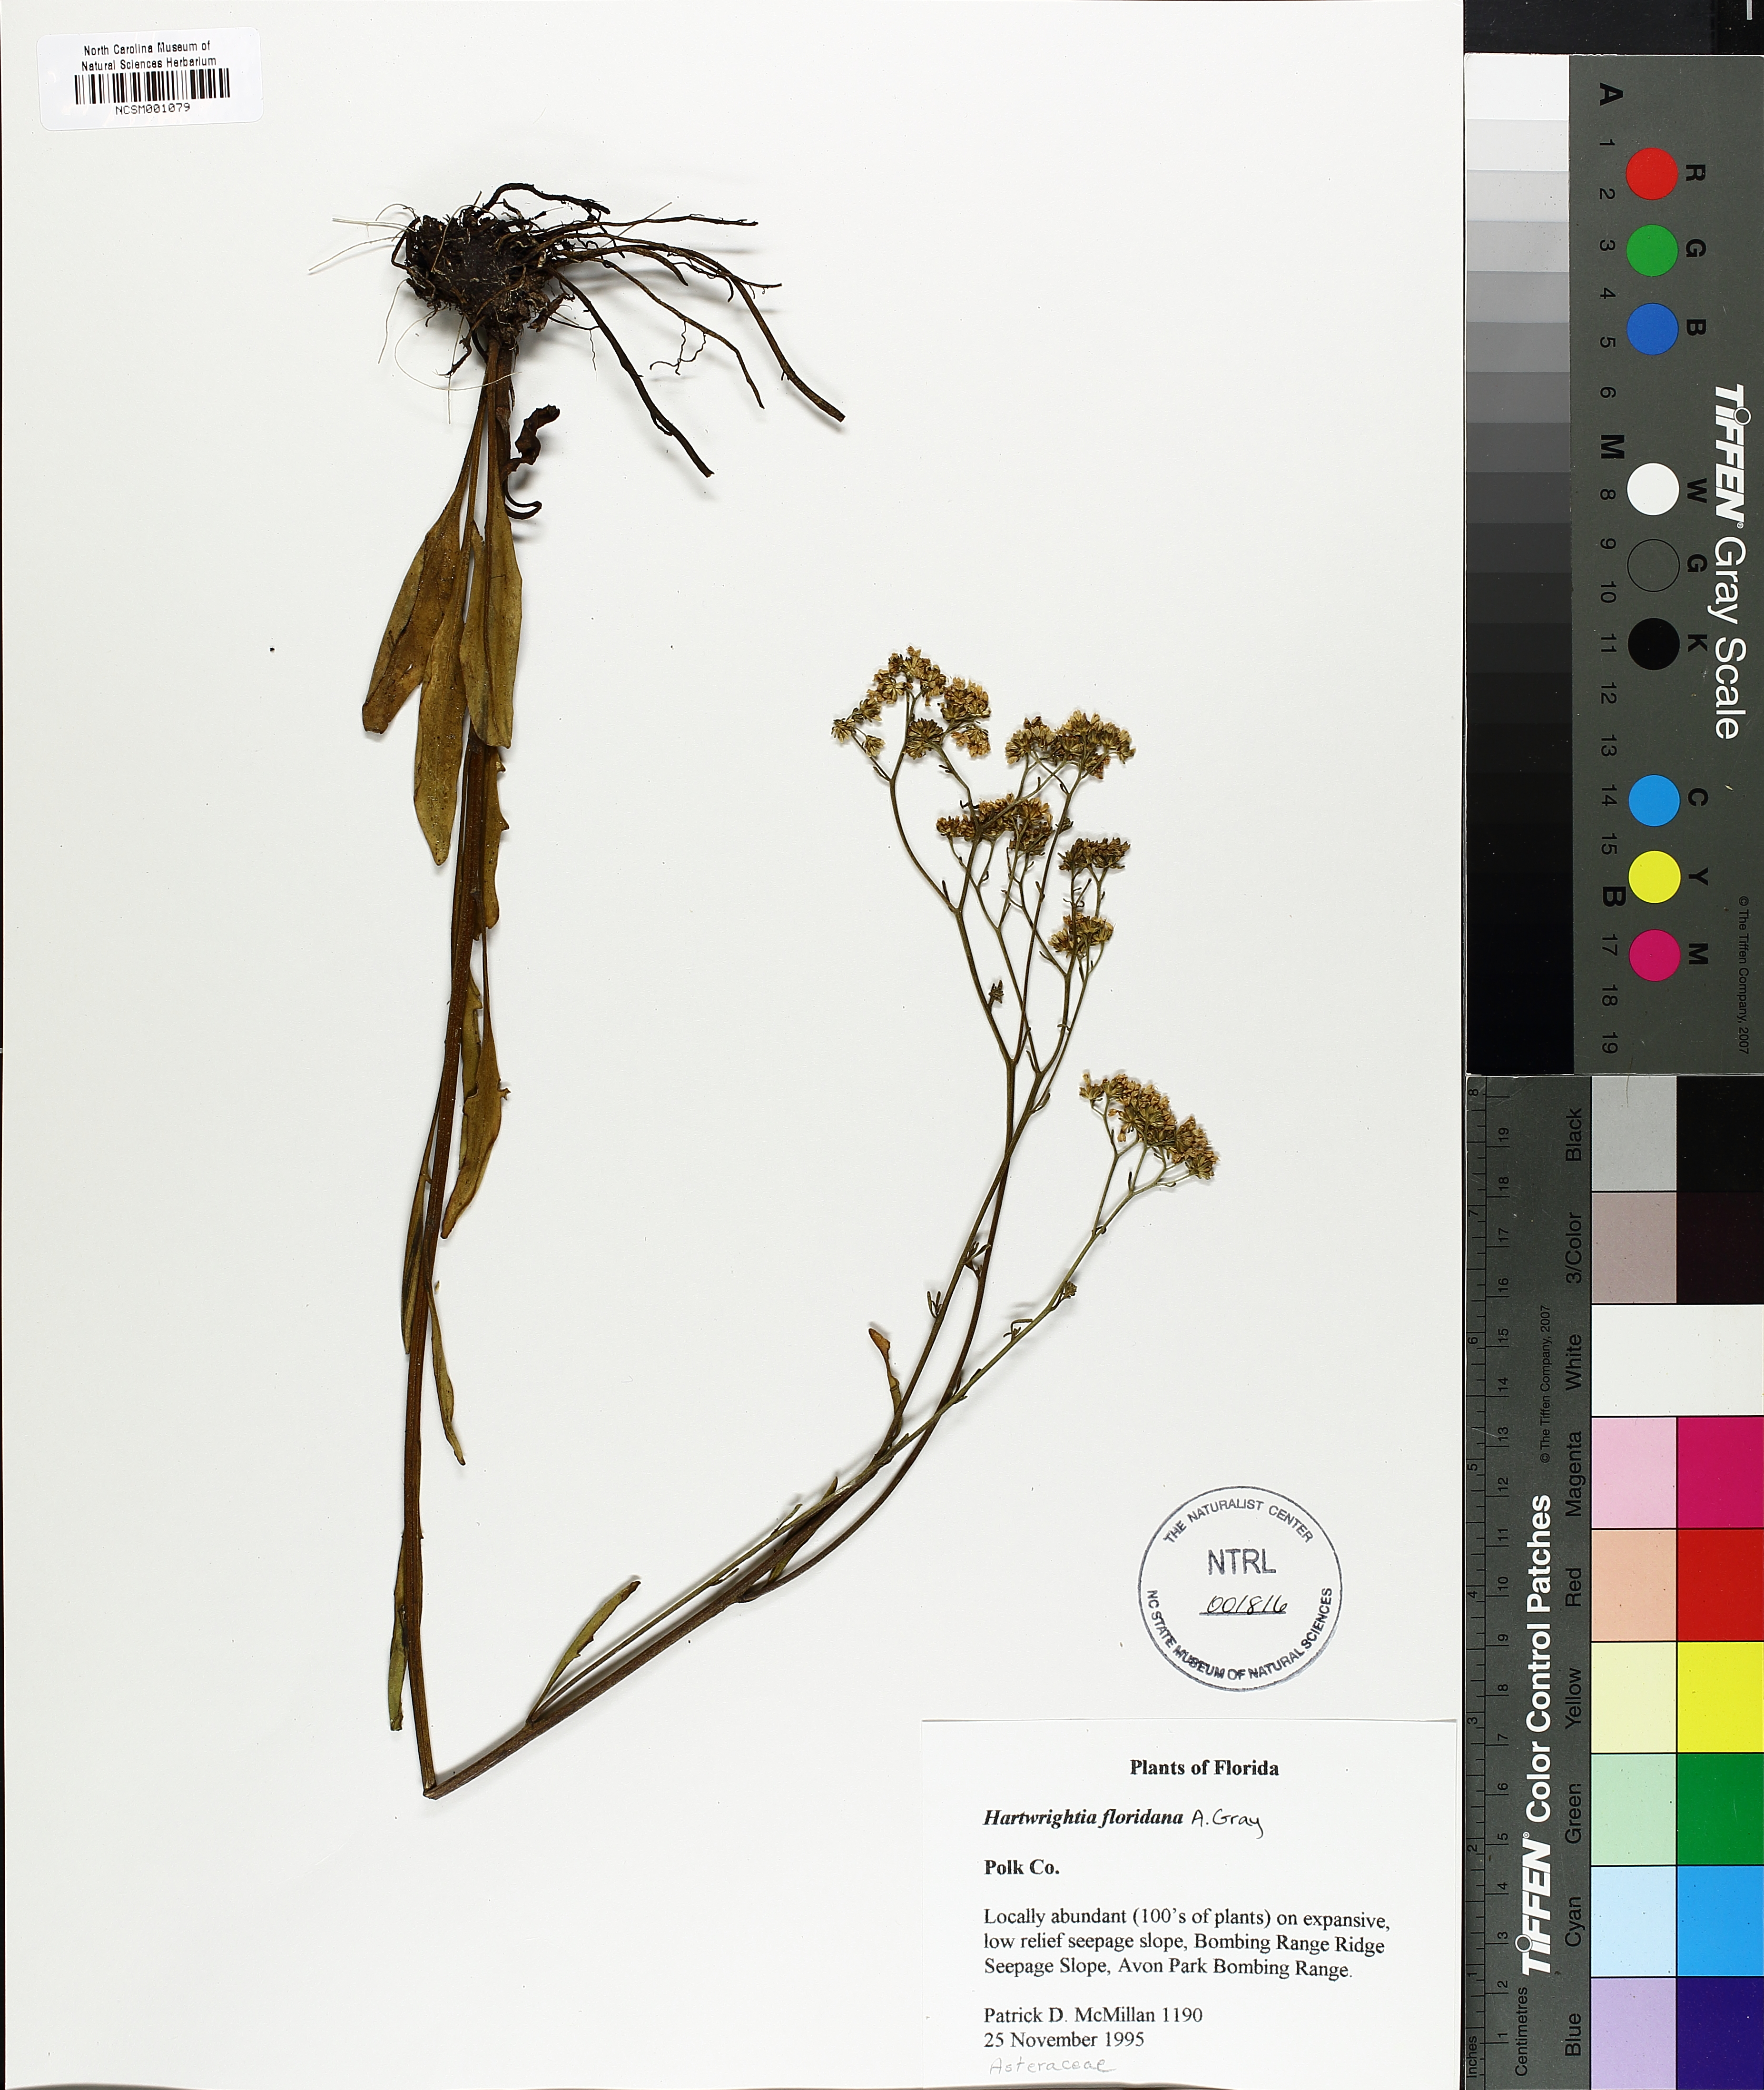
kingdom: Plantae
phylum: Tracheophyta
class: Magnoliopsida
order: Asterales
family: Asteraceae
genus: Hartwrightia
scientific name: Hartwrightia floridana
